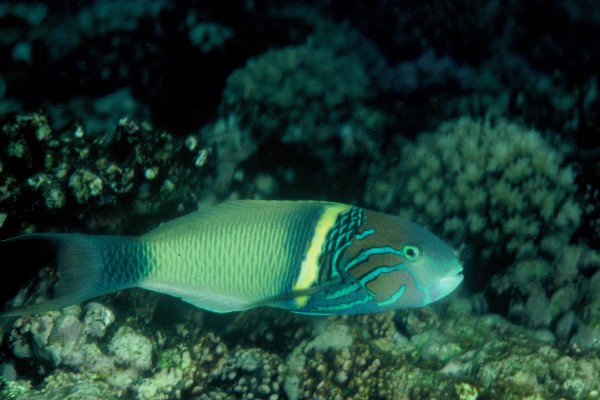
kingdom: Animalia
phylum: Chordata
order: Perciformes
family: Labridae
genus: Thalassoma
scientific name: Thalassoma hebraicum
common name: Goldbar wrasse
